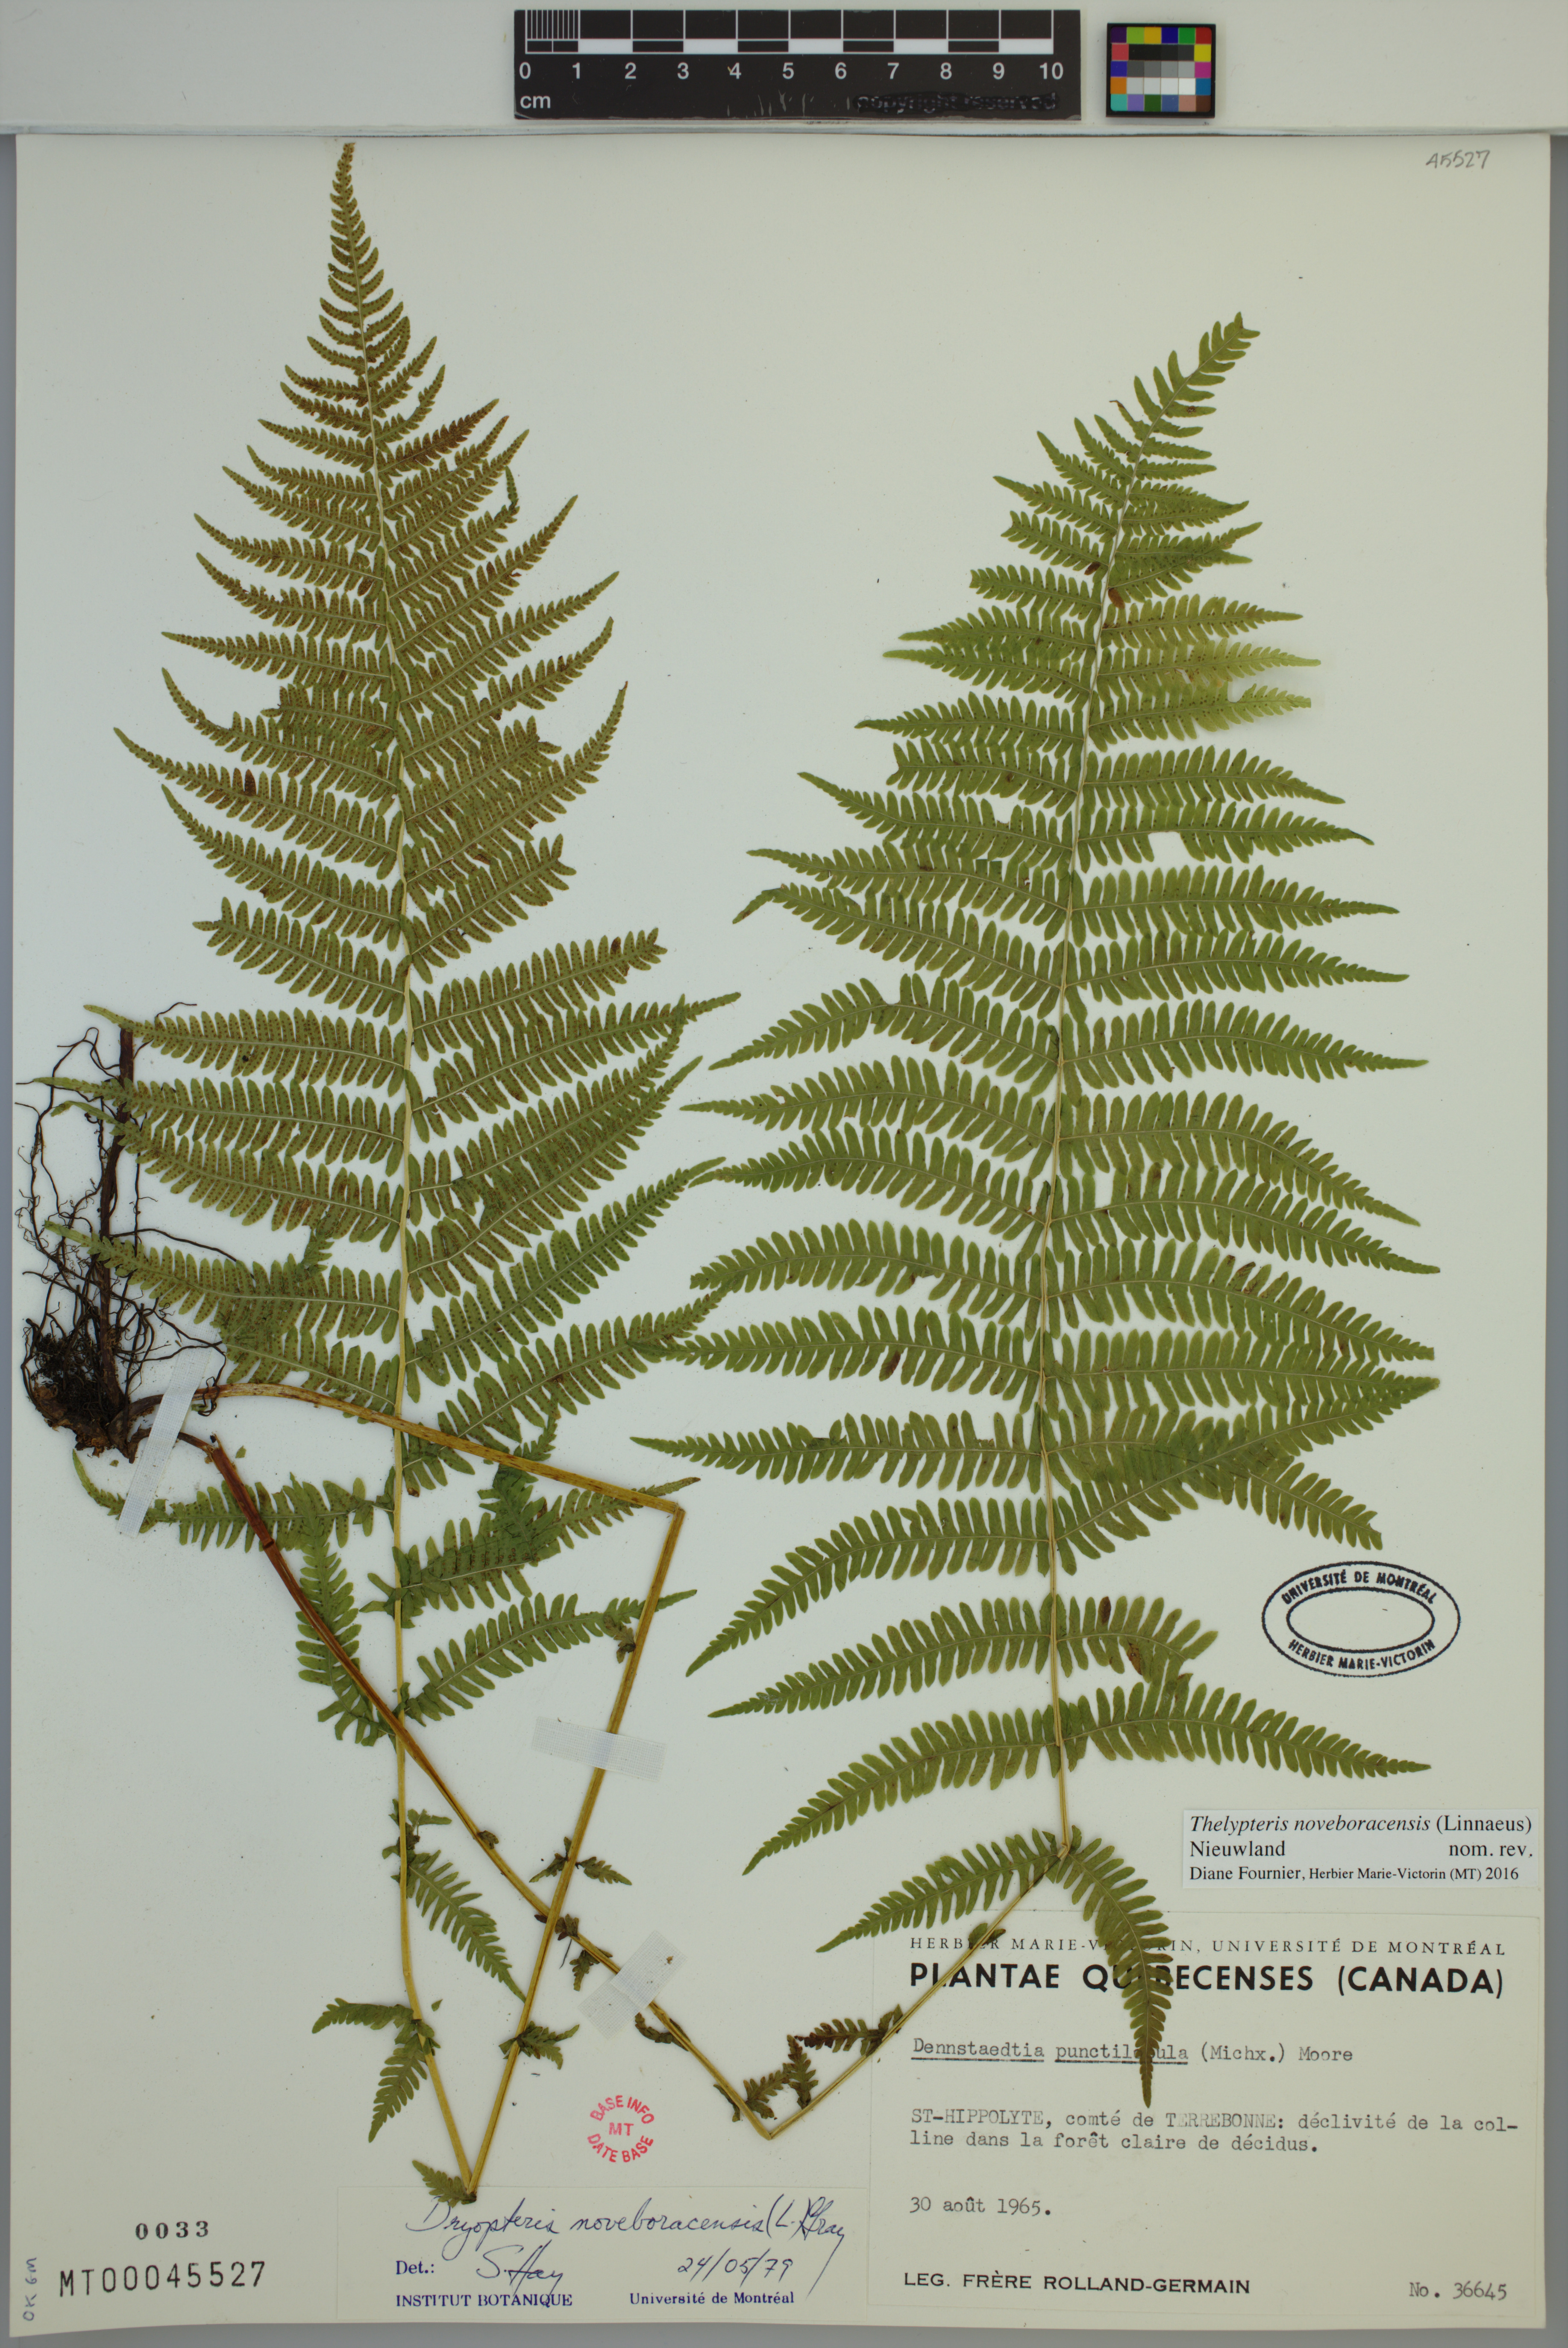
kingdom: Plantae
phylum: Tracheophyta
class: Polypodiopsida
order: Polypodiales
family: Thelypteridaceae
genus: Amauropelta
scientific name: Amauropelta noveboracensis
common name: New york fern
